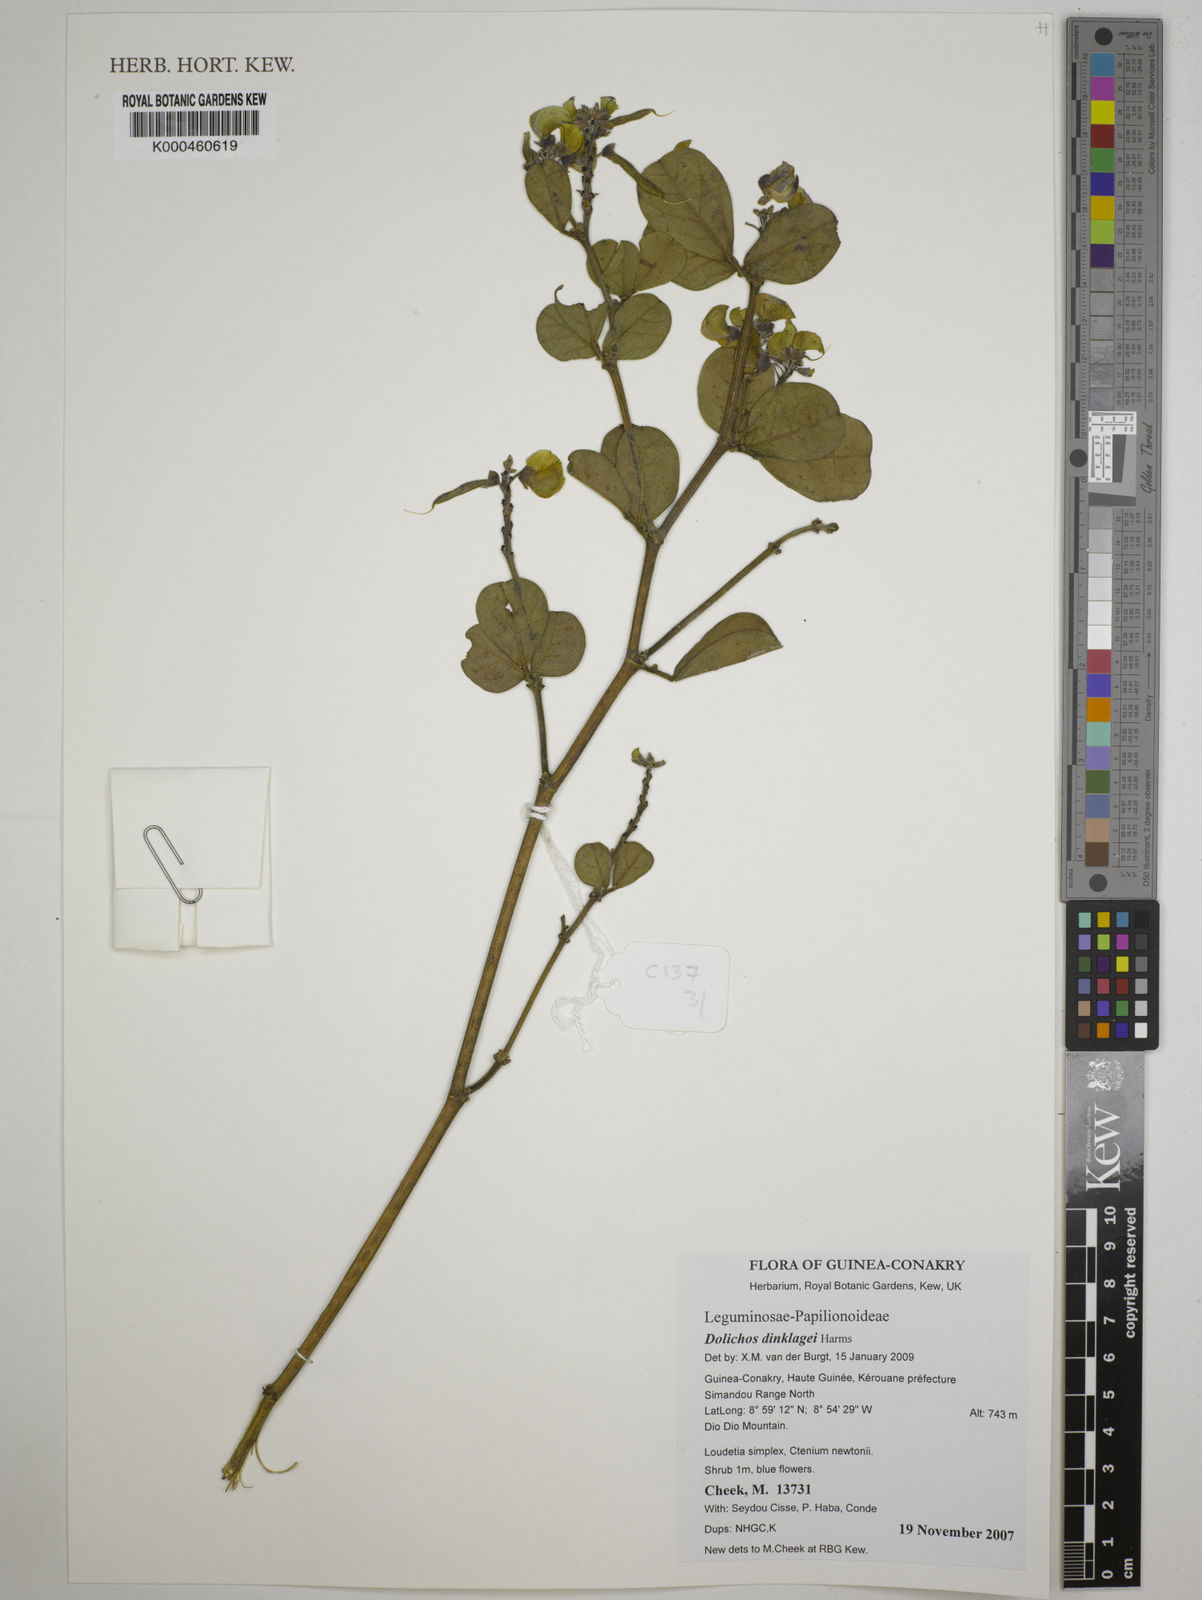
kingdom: Plantae
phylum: Tracheophyta
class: Magnoliopsida
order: Fabales
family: Fabaceae
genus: Dolichos
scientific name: Dolichos dinklagei
